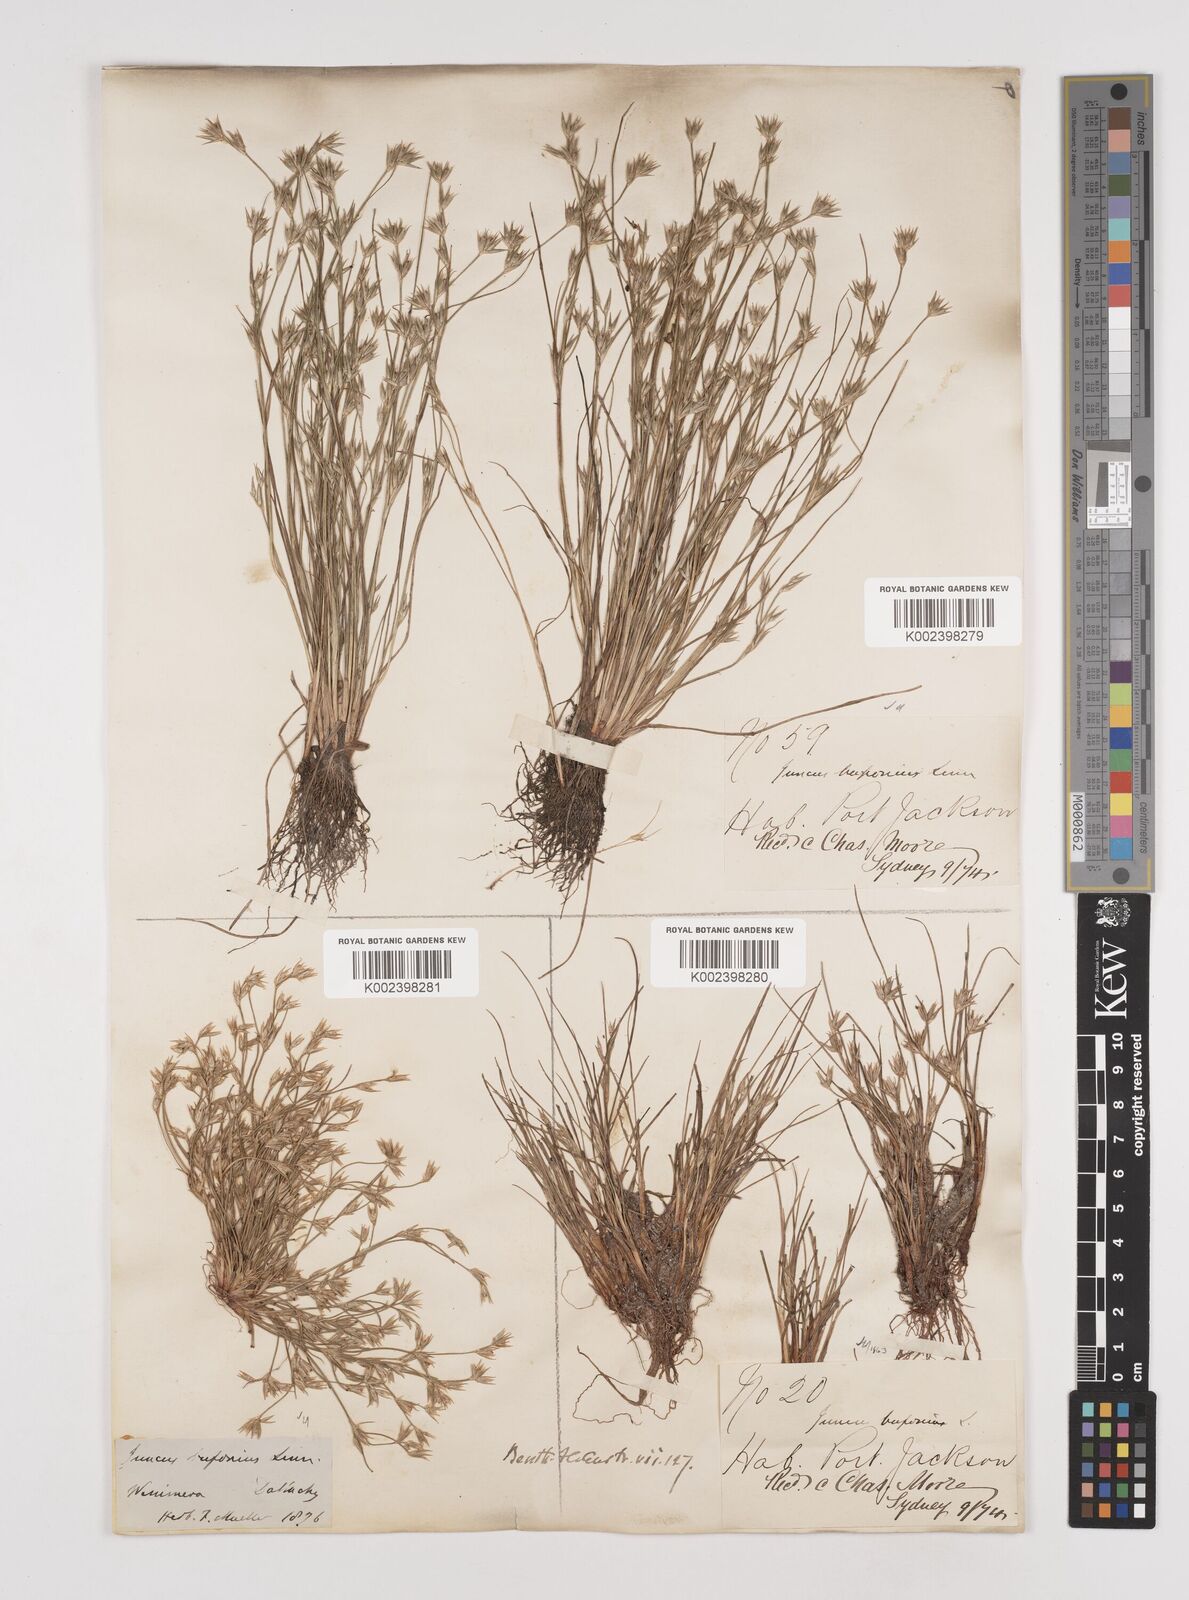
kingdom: Plantae
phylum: Tracheophyta
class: Liliopsida
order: Poales
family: Juncaceae
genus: Juncus
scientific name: Juncus ranarius
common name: Frog rush
